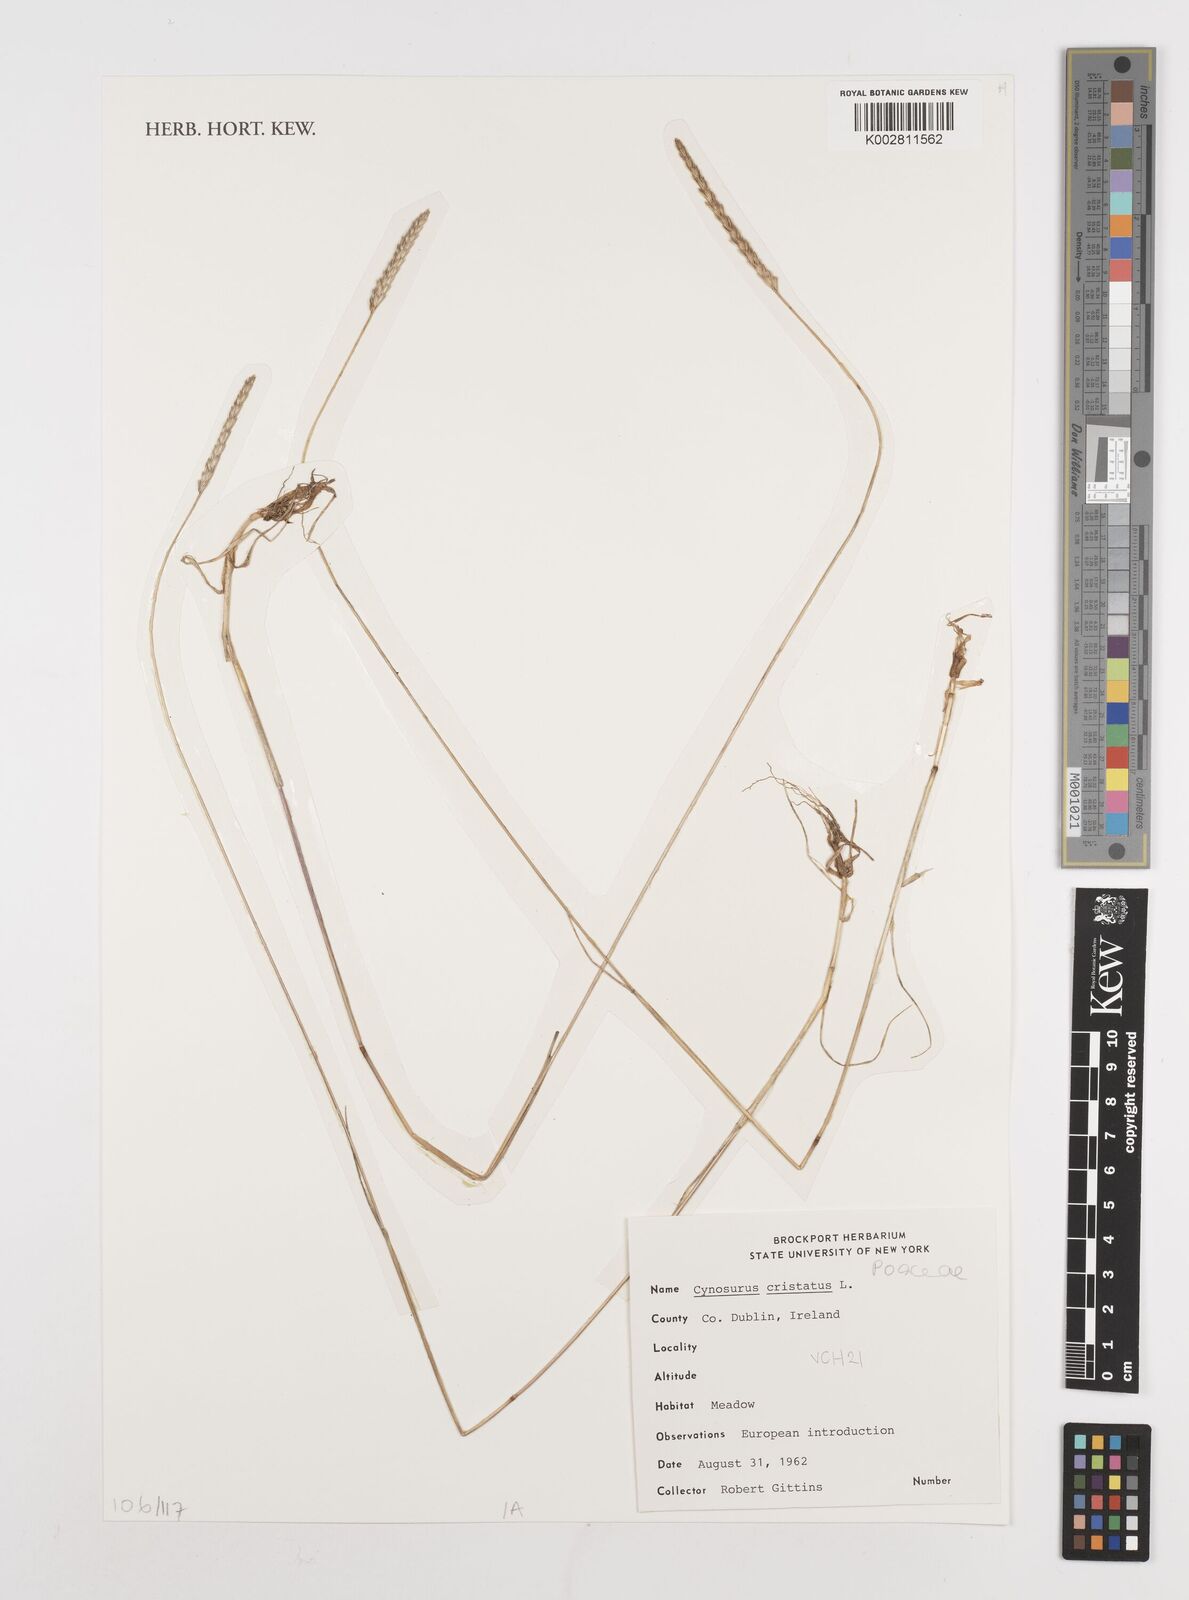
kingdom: Plantae
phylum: Tracheophyta
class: Liliopsida
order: Poales
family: Poaceae
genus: Cynosurus
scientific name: Cynosurus cristatus
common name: Crested dog's-tail
